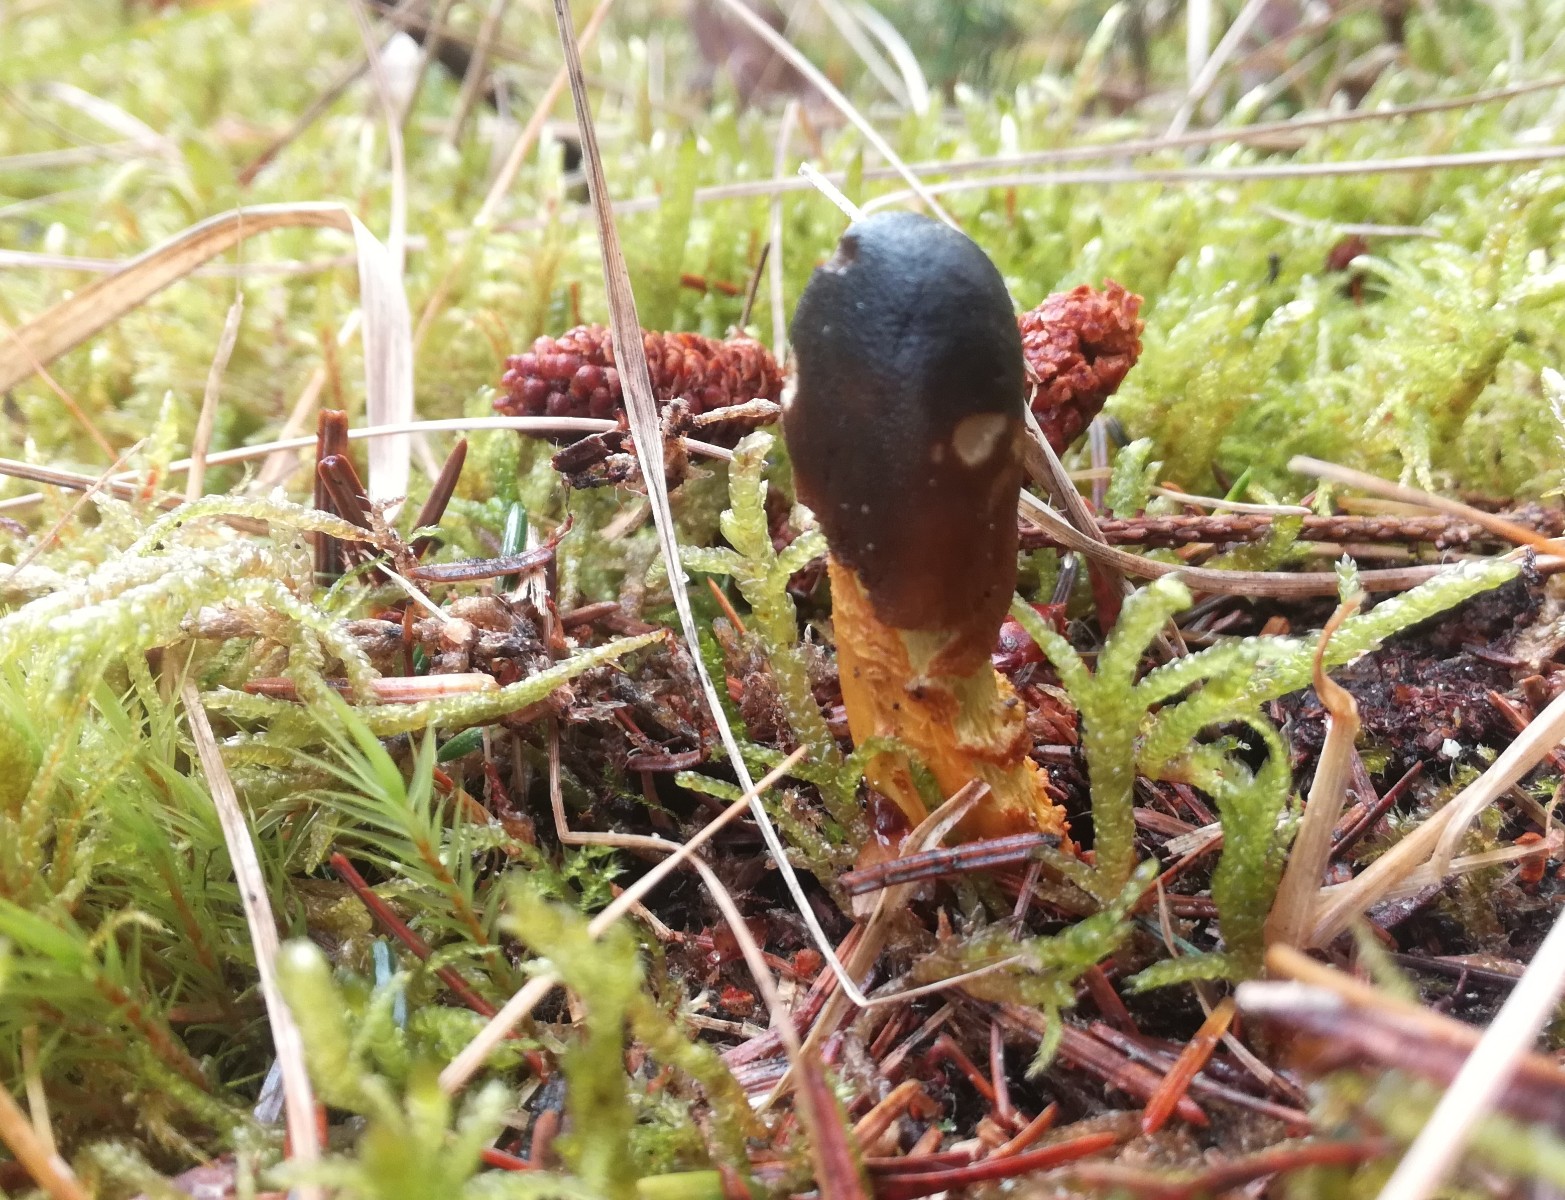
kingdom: Fungi
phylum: Ascomycota
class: Sordariomycetes
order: Hypocreales
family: Ophiocordycipitaceae
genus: Tolypocladium
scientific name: Tolypocladium capitatum
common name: højstokket snyltekølle
